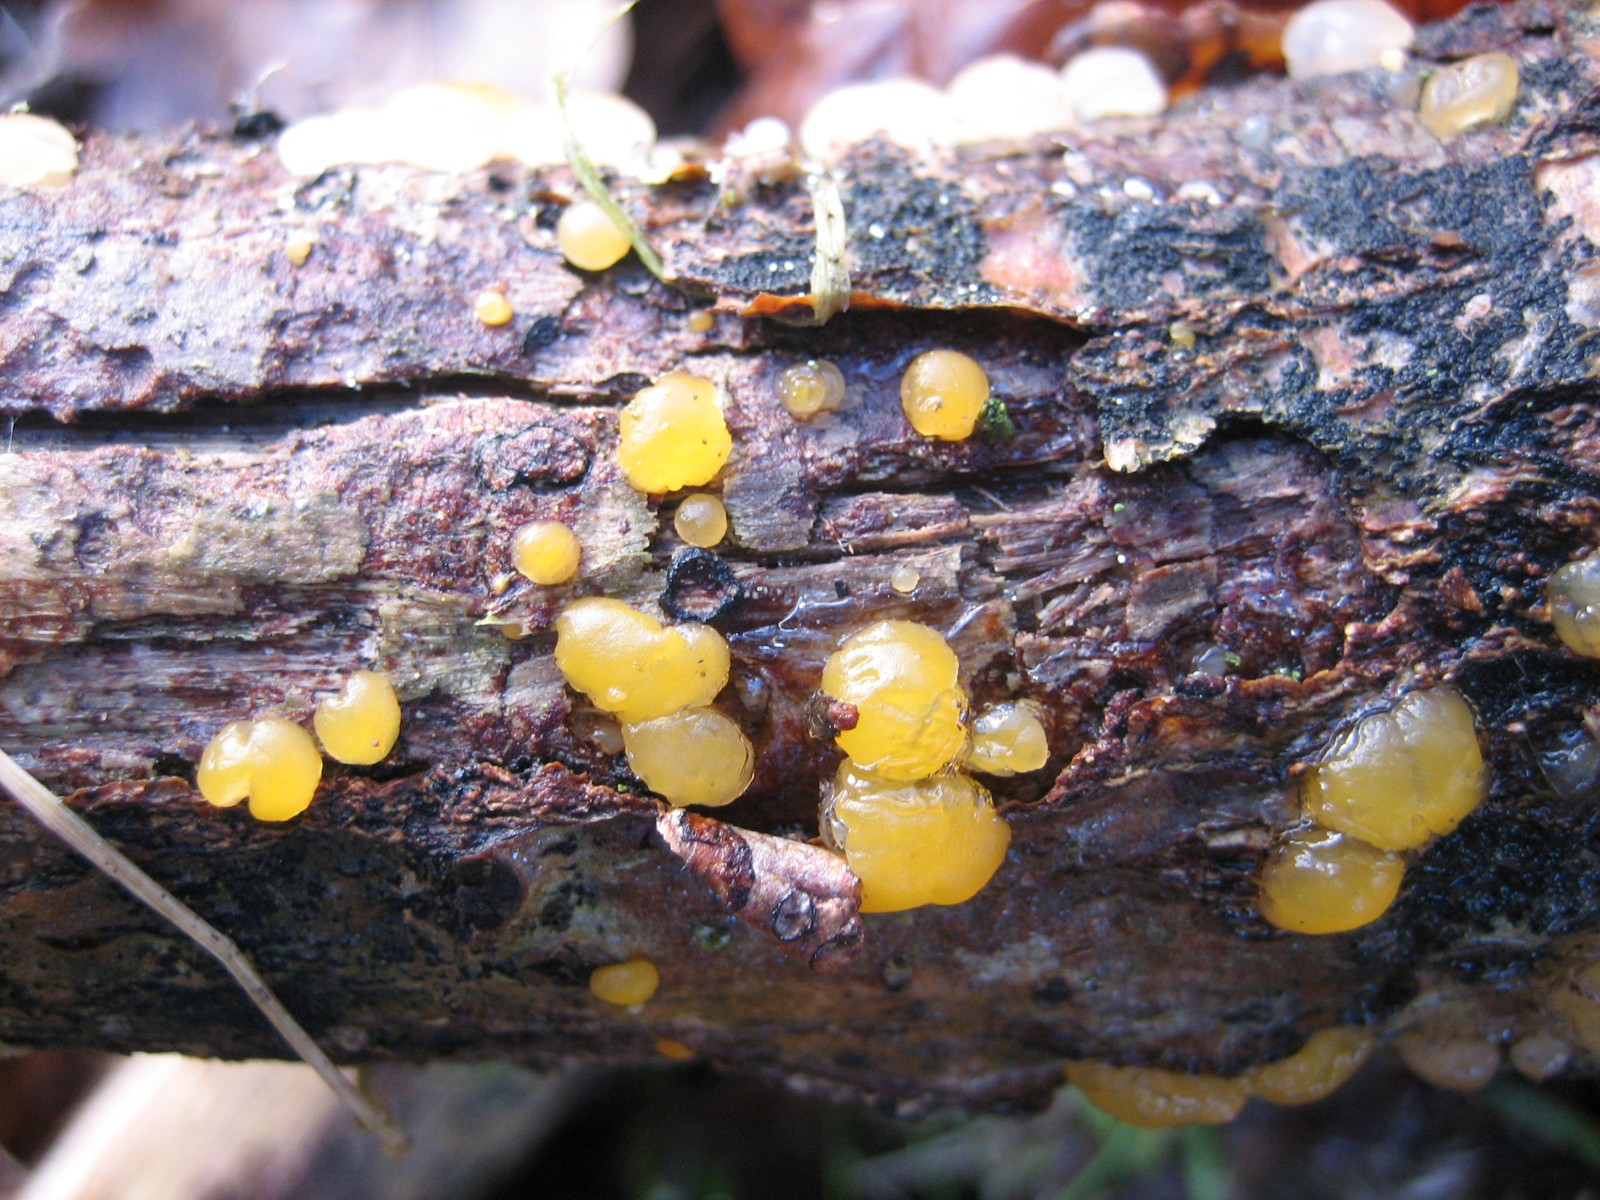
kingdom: Fungi
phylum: Basidiomycota
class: Dacrymycetes
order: Dacrymycetales
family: Dacrymycetaceae
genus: Dacrymyces
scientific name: Dacrymyces stillatus
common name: almindelig tåresvamp
